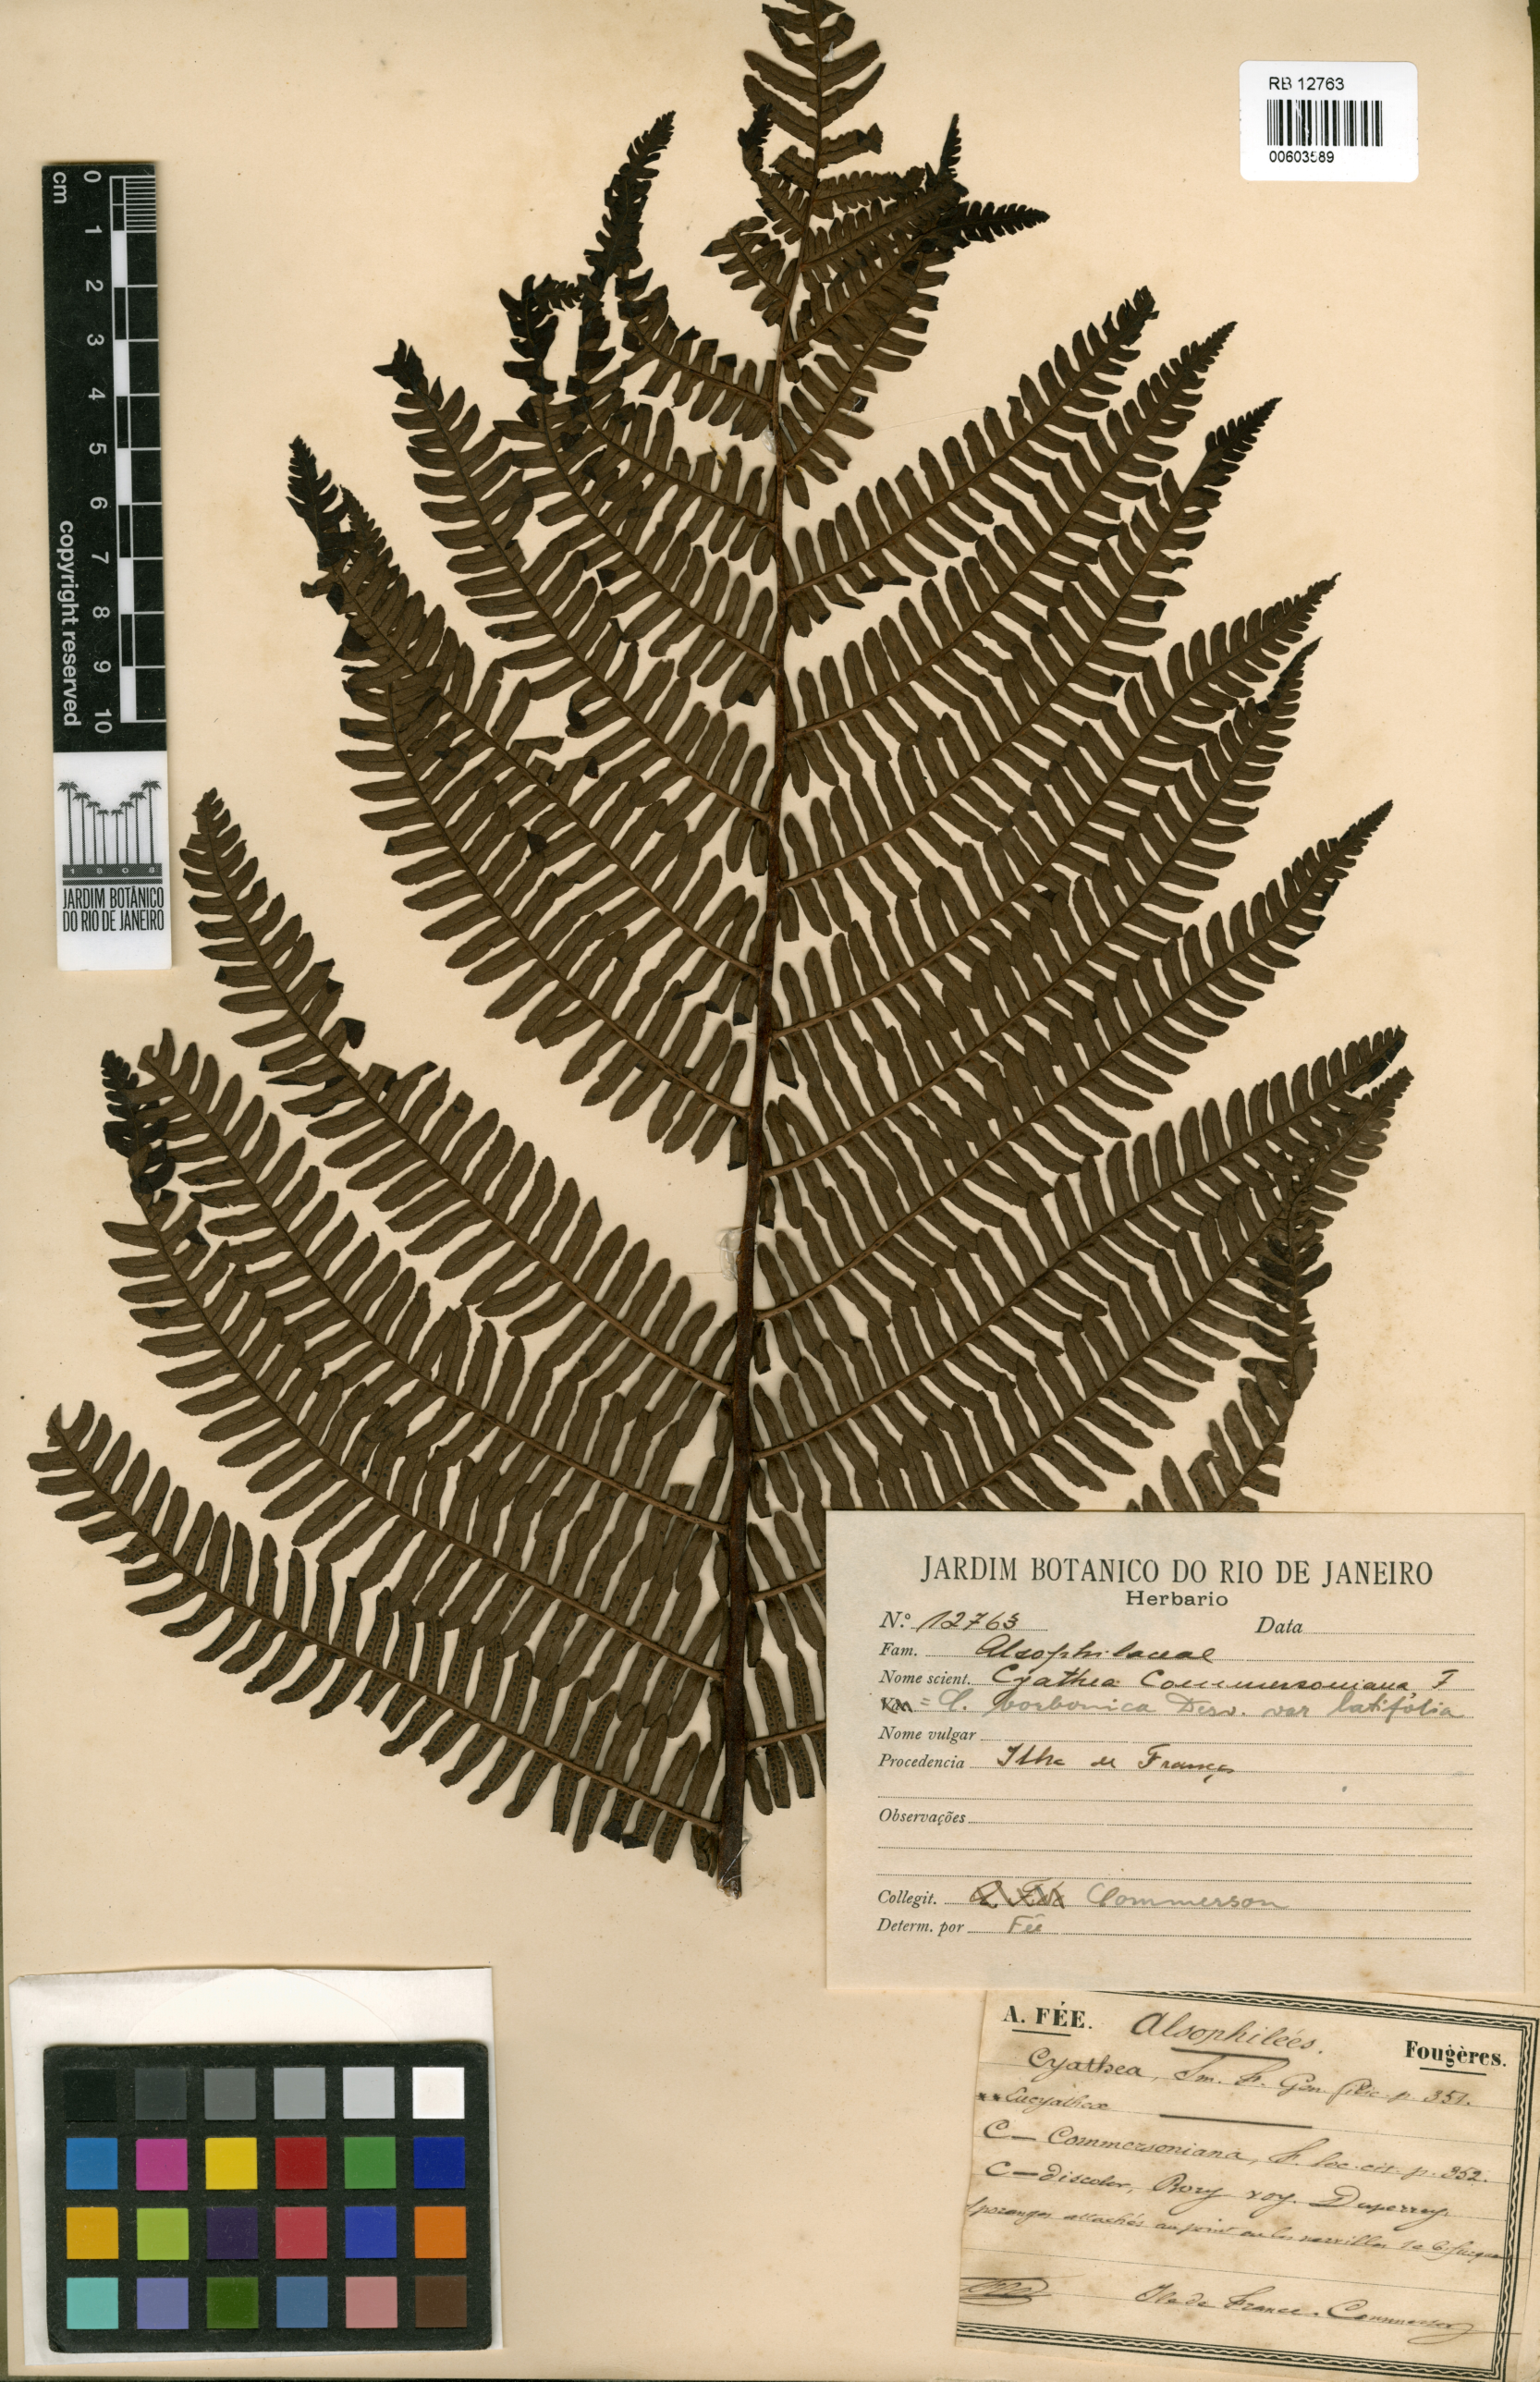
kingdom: Plantae
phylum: Tracheophyta
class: Polypodiopsida
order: Cyatheales
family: Cyatheaceae
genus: Alsophila
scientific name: Alsophila borbonica
